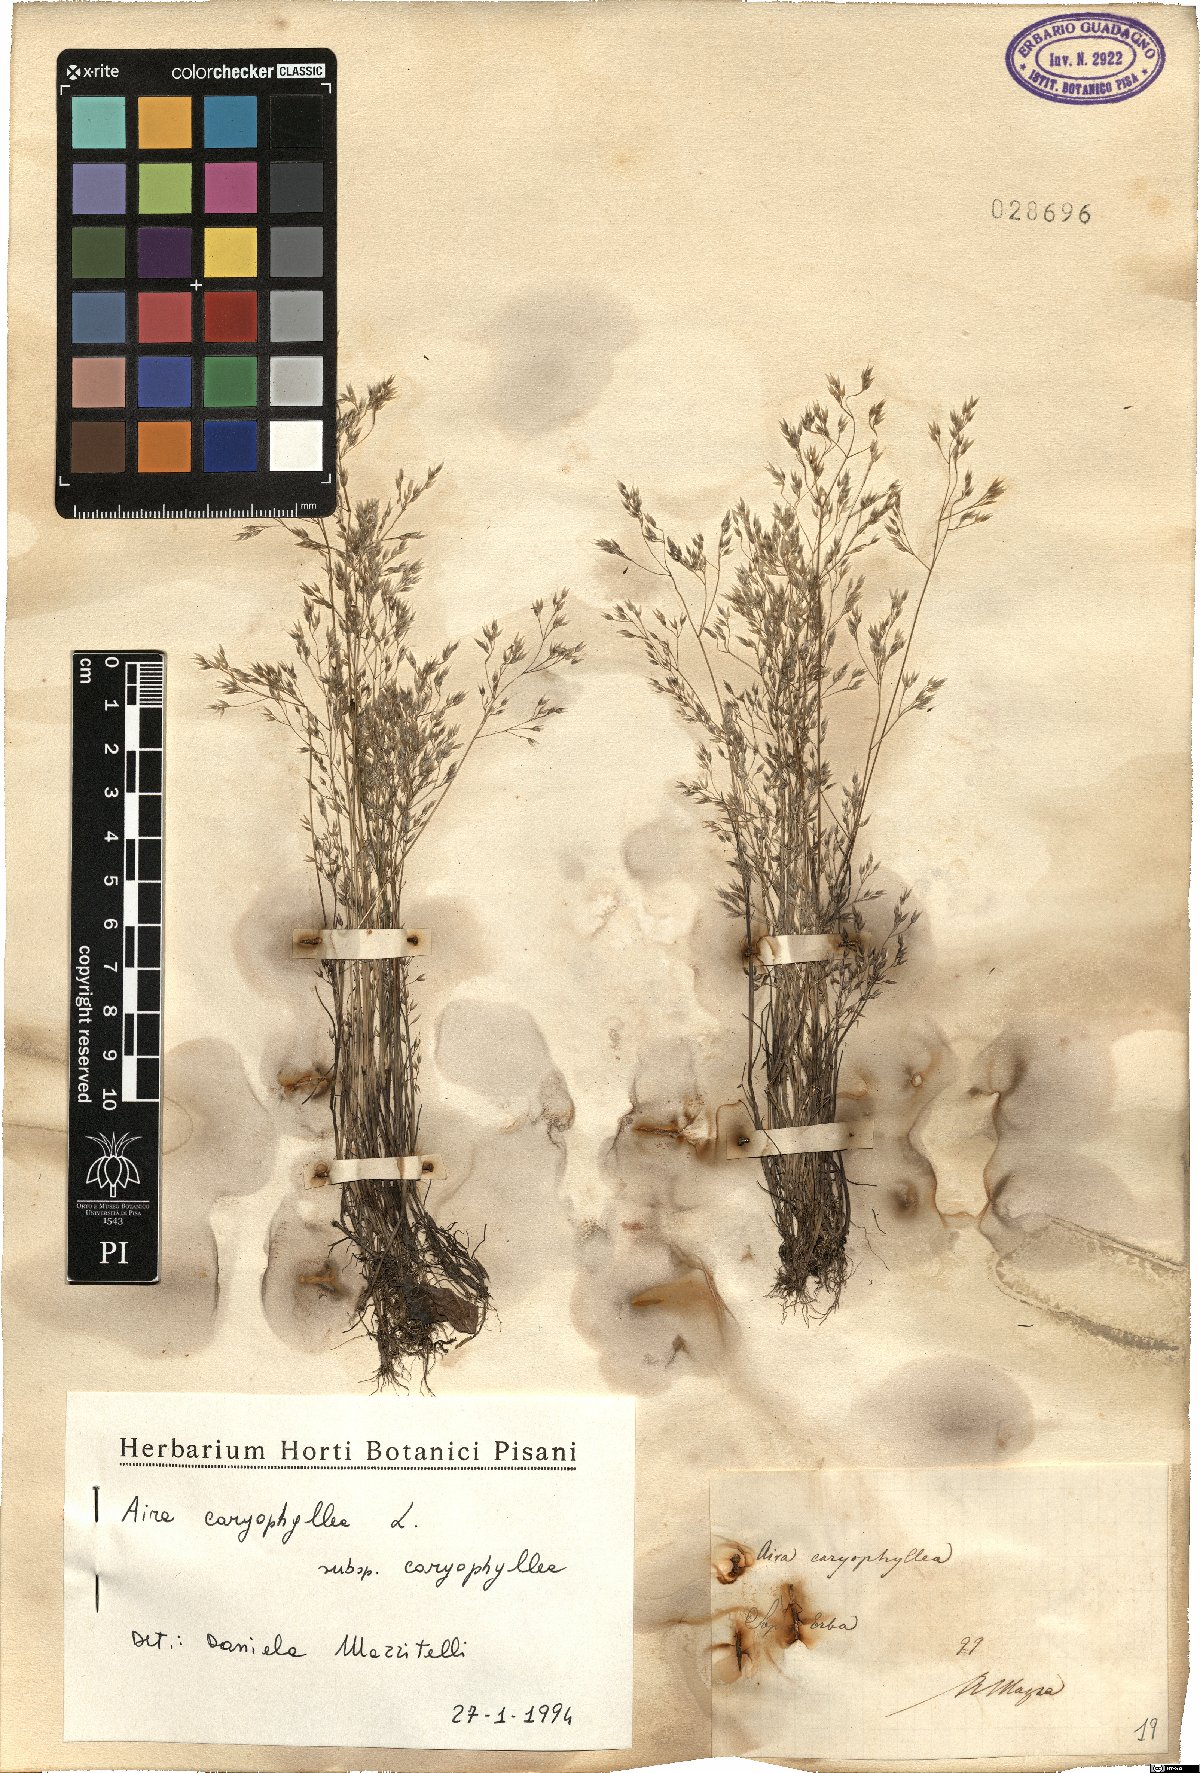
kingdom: Plantae
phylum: Tracheophyta
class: Liliopsida
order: Poales
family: Poaceae
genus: Aira
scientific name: Aira caryophyllea
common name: Silver hairgrass
